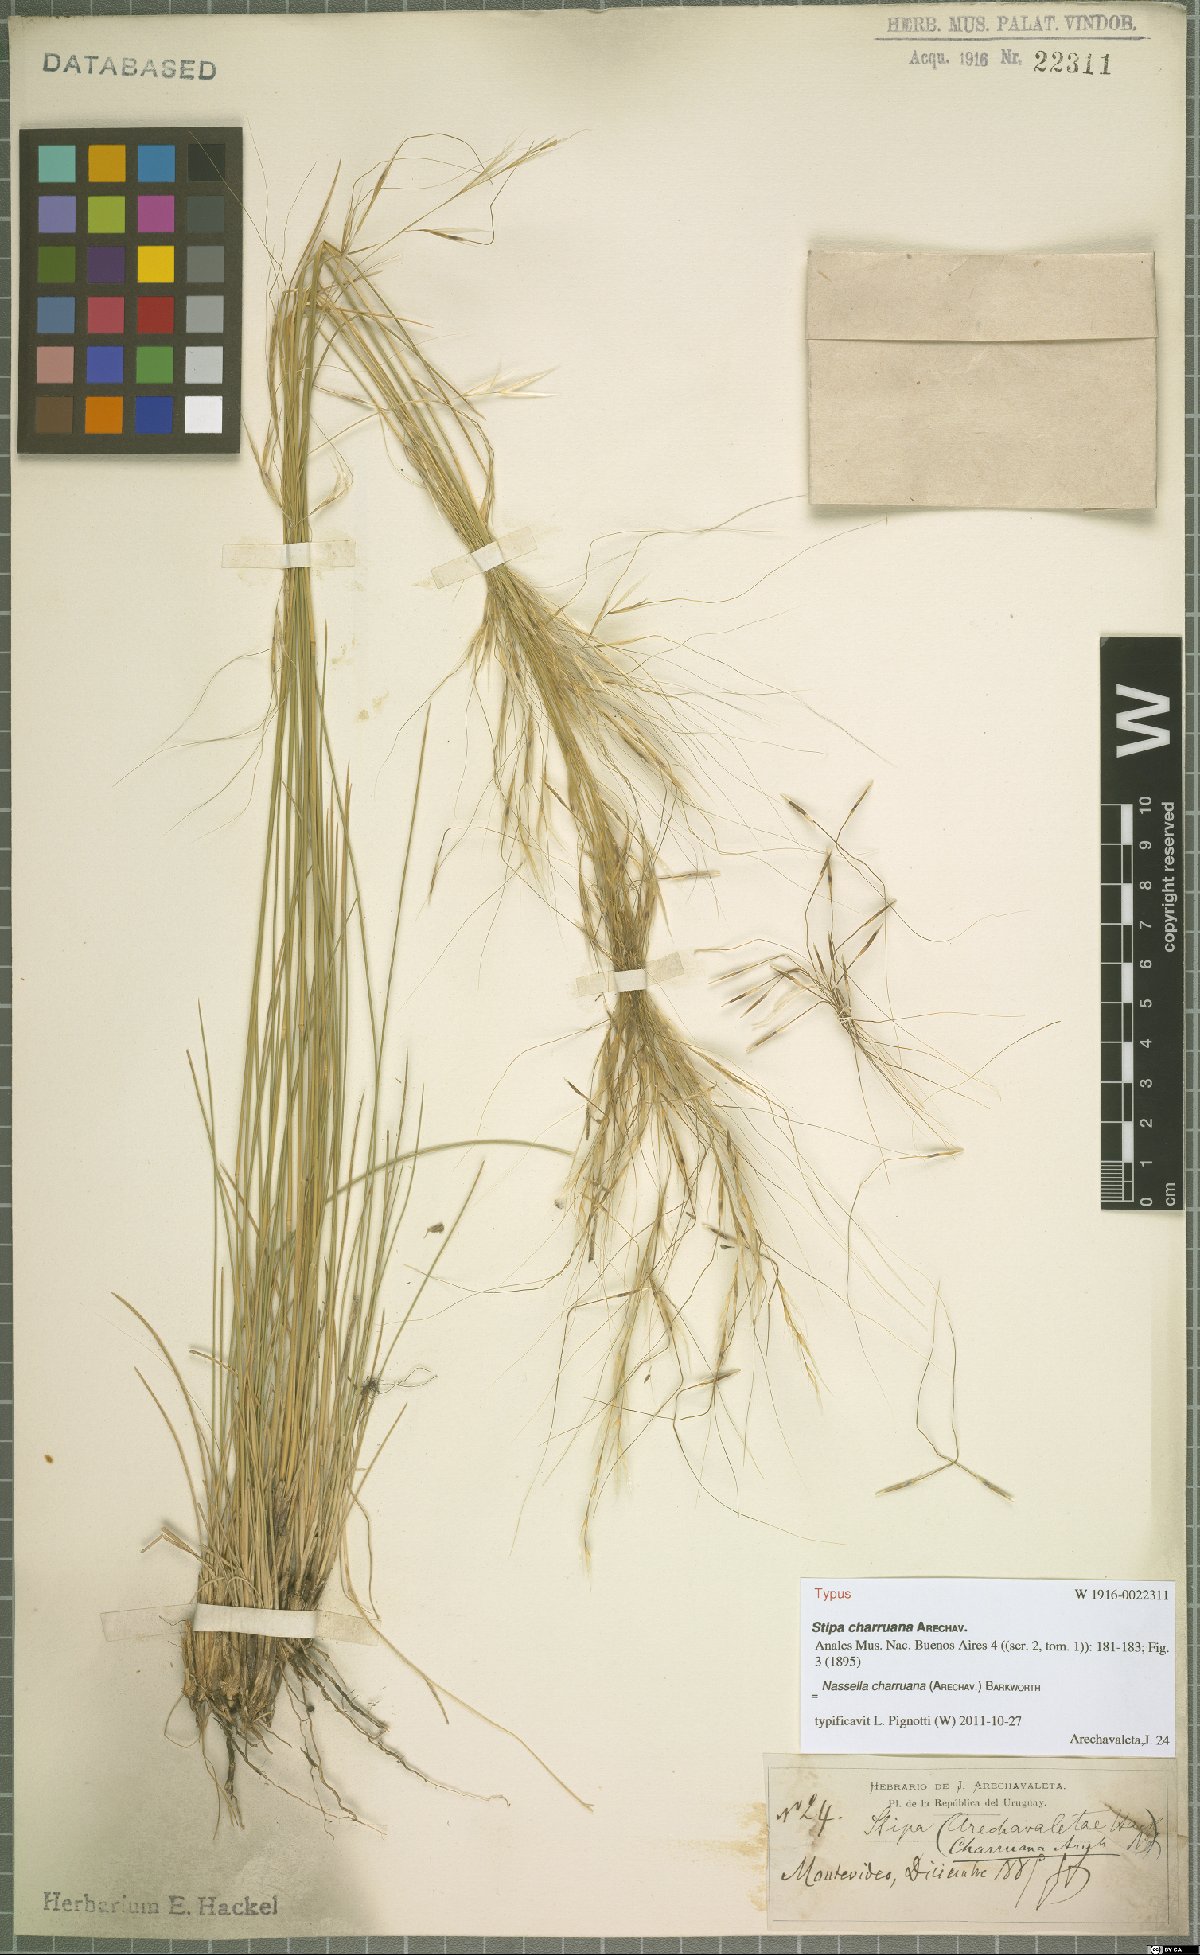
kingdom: Plantae
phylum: Tracheophyta
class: Liliopsida
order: Poales
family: Poaceae
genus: Nassella
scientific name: Nassella charruana
